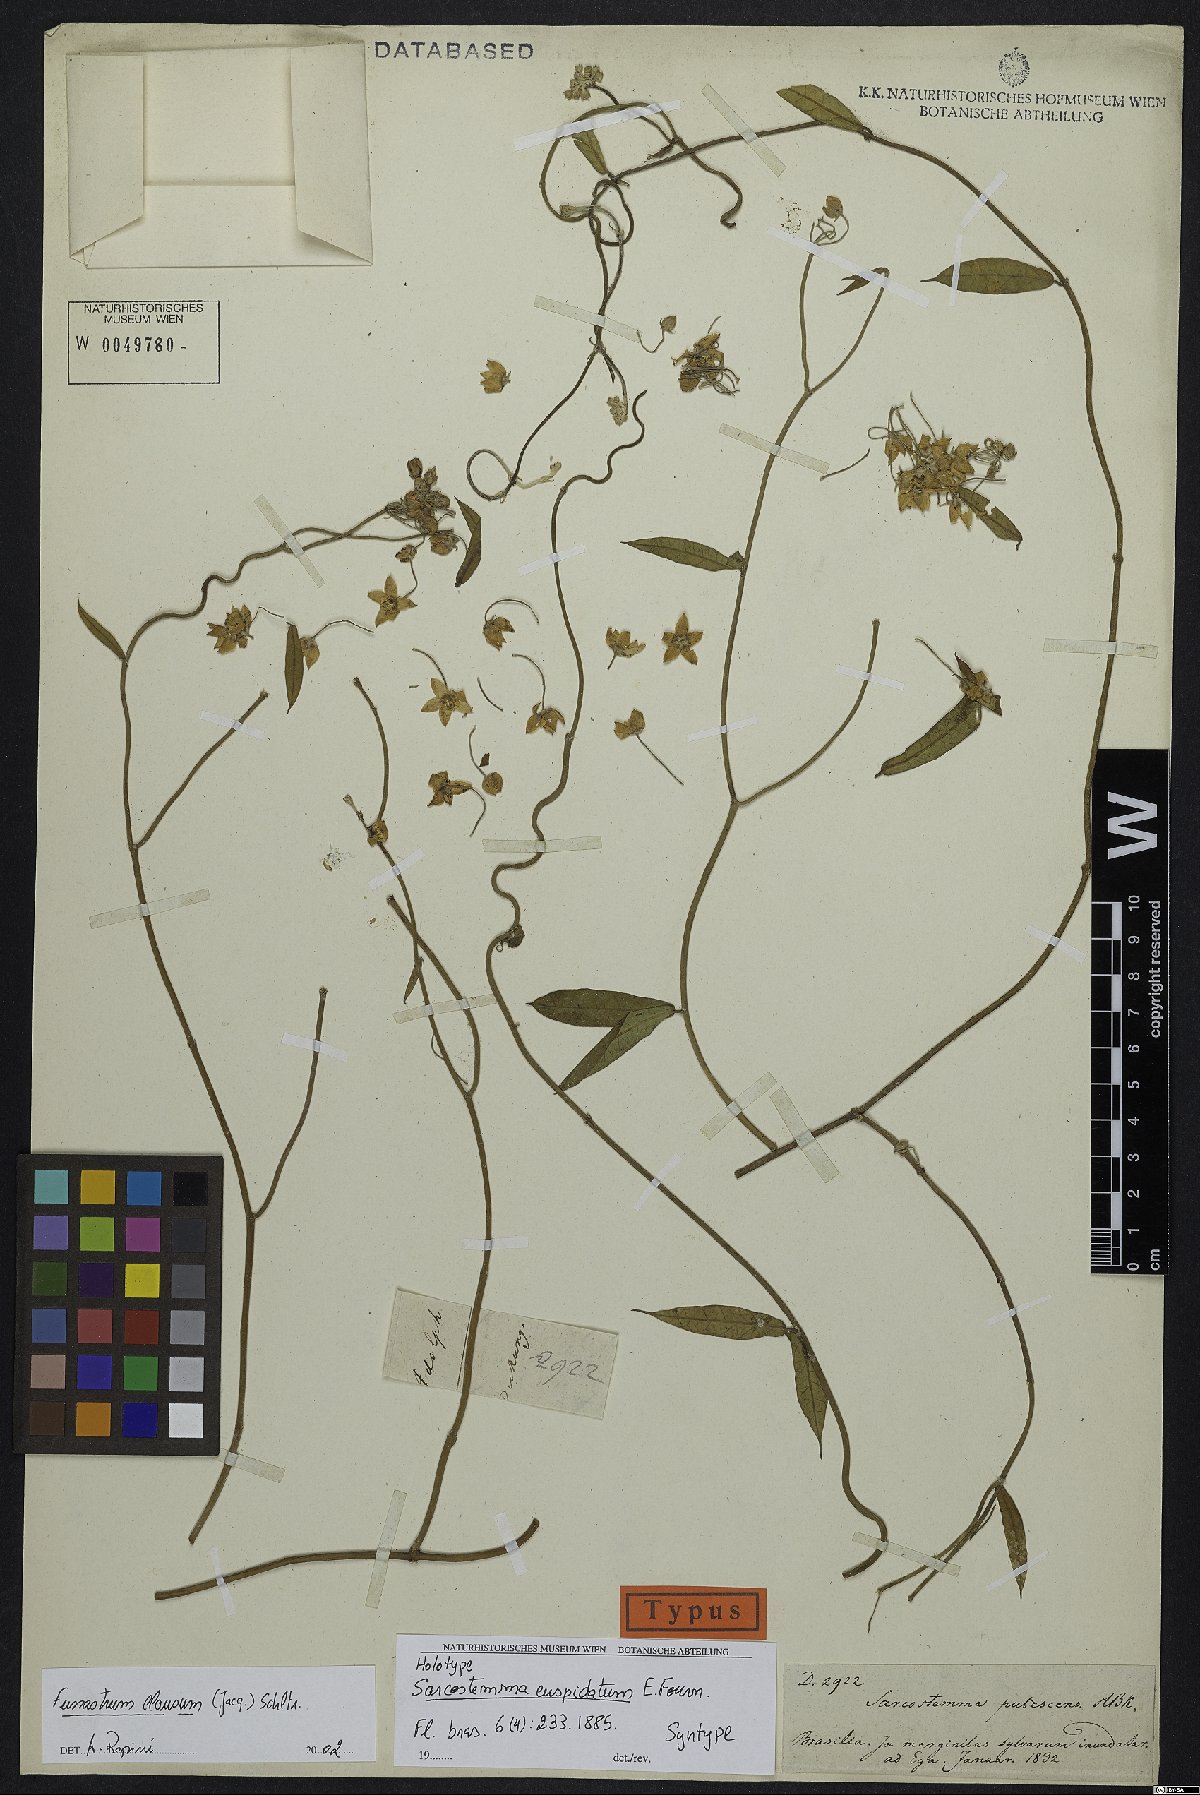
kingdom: Plantae
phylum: Tracheophyta
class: Magnoliopsida
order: Gentianales
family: Apocynaceae
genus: Funastrum
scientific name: Funastrum clausum
